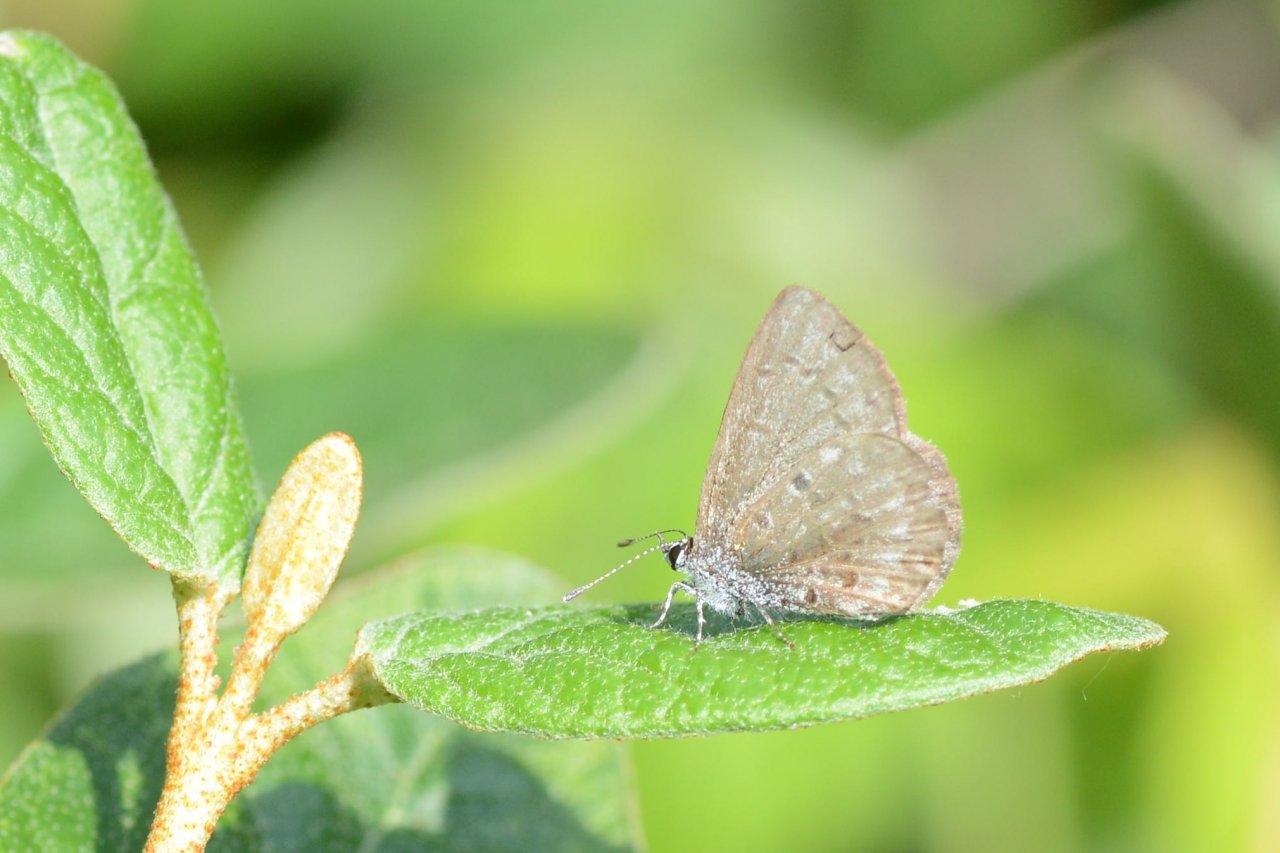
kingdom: Animalia
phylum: Arthropoda
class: Insecta
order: Lepidoptera
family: Lycaenidae
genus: Celastrina
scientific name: Celastrina lucia
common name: Northern Spring Azure
